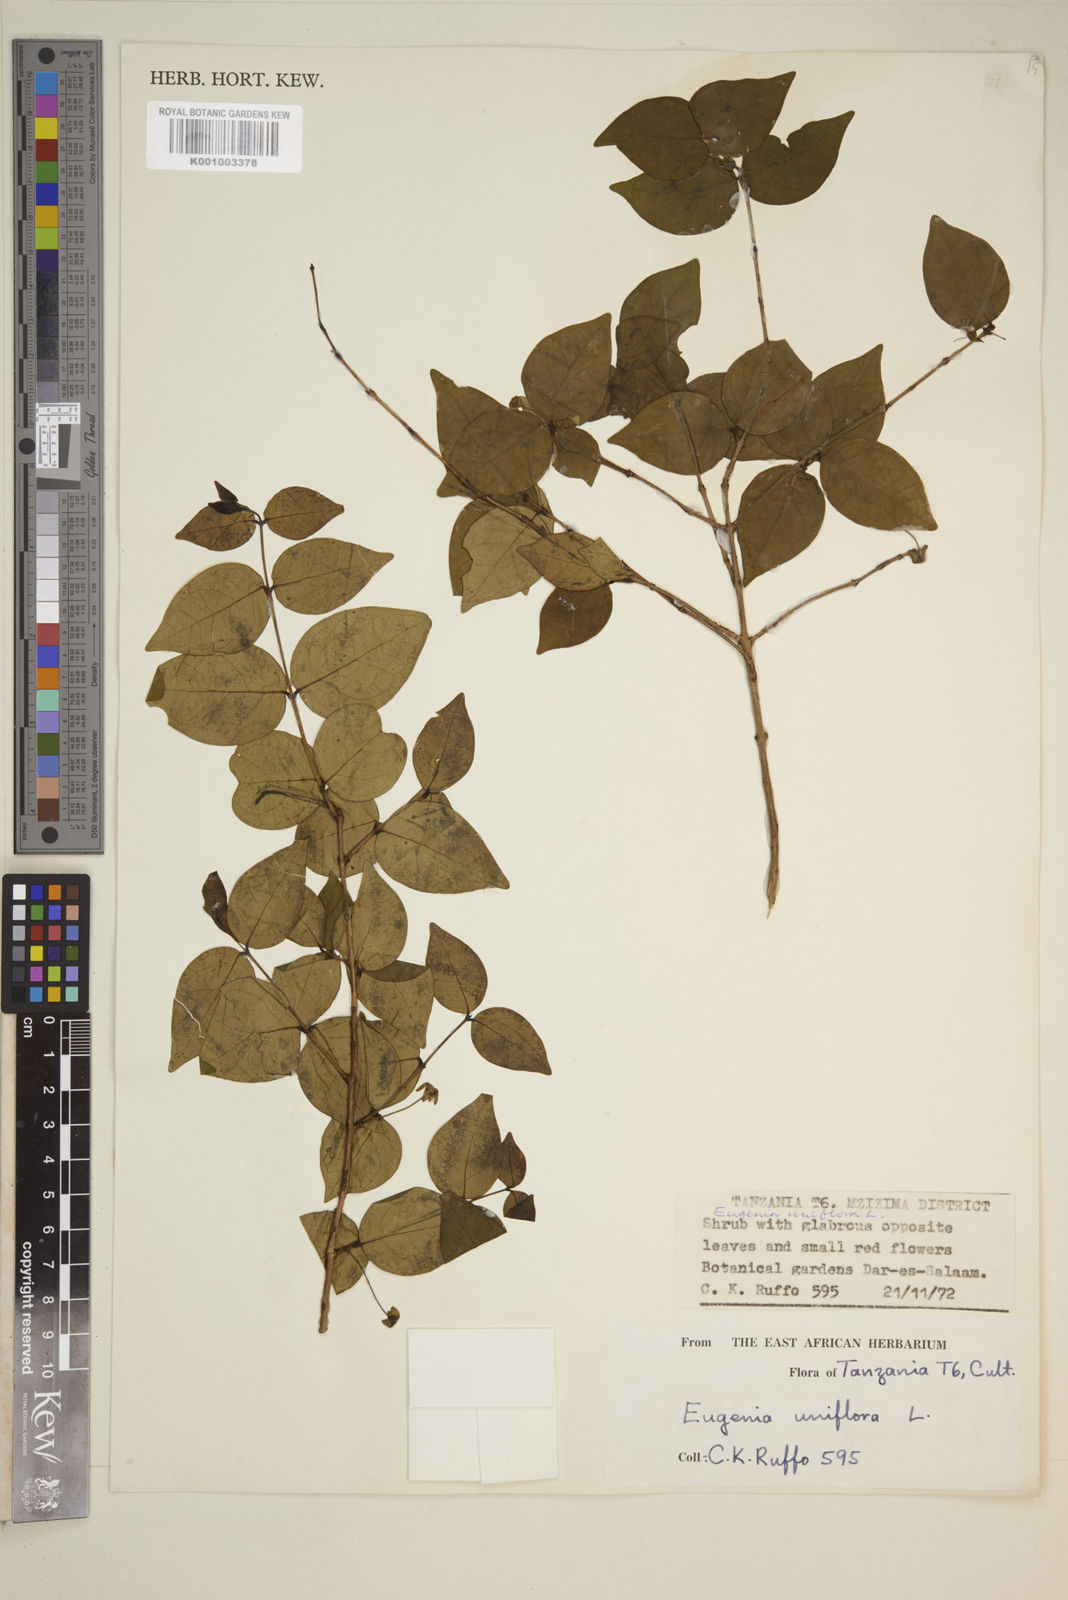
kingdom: Plantae
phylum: Tracheophyta
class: Magnoliopsida
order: Myrtales
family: Myrtaceae
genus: Eugenia
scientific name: Eugenia uniflora
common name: Surinam cherry
